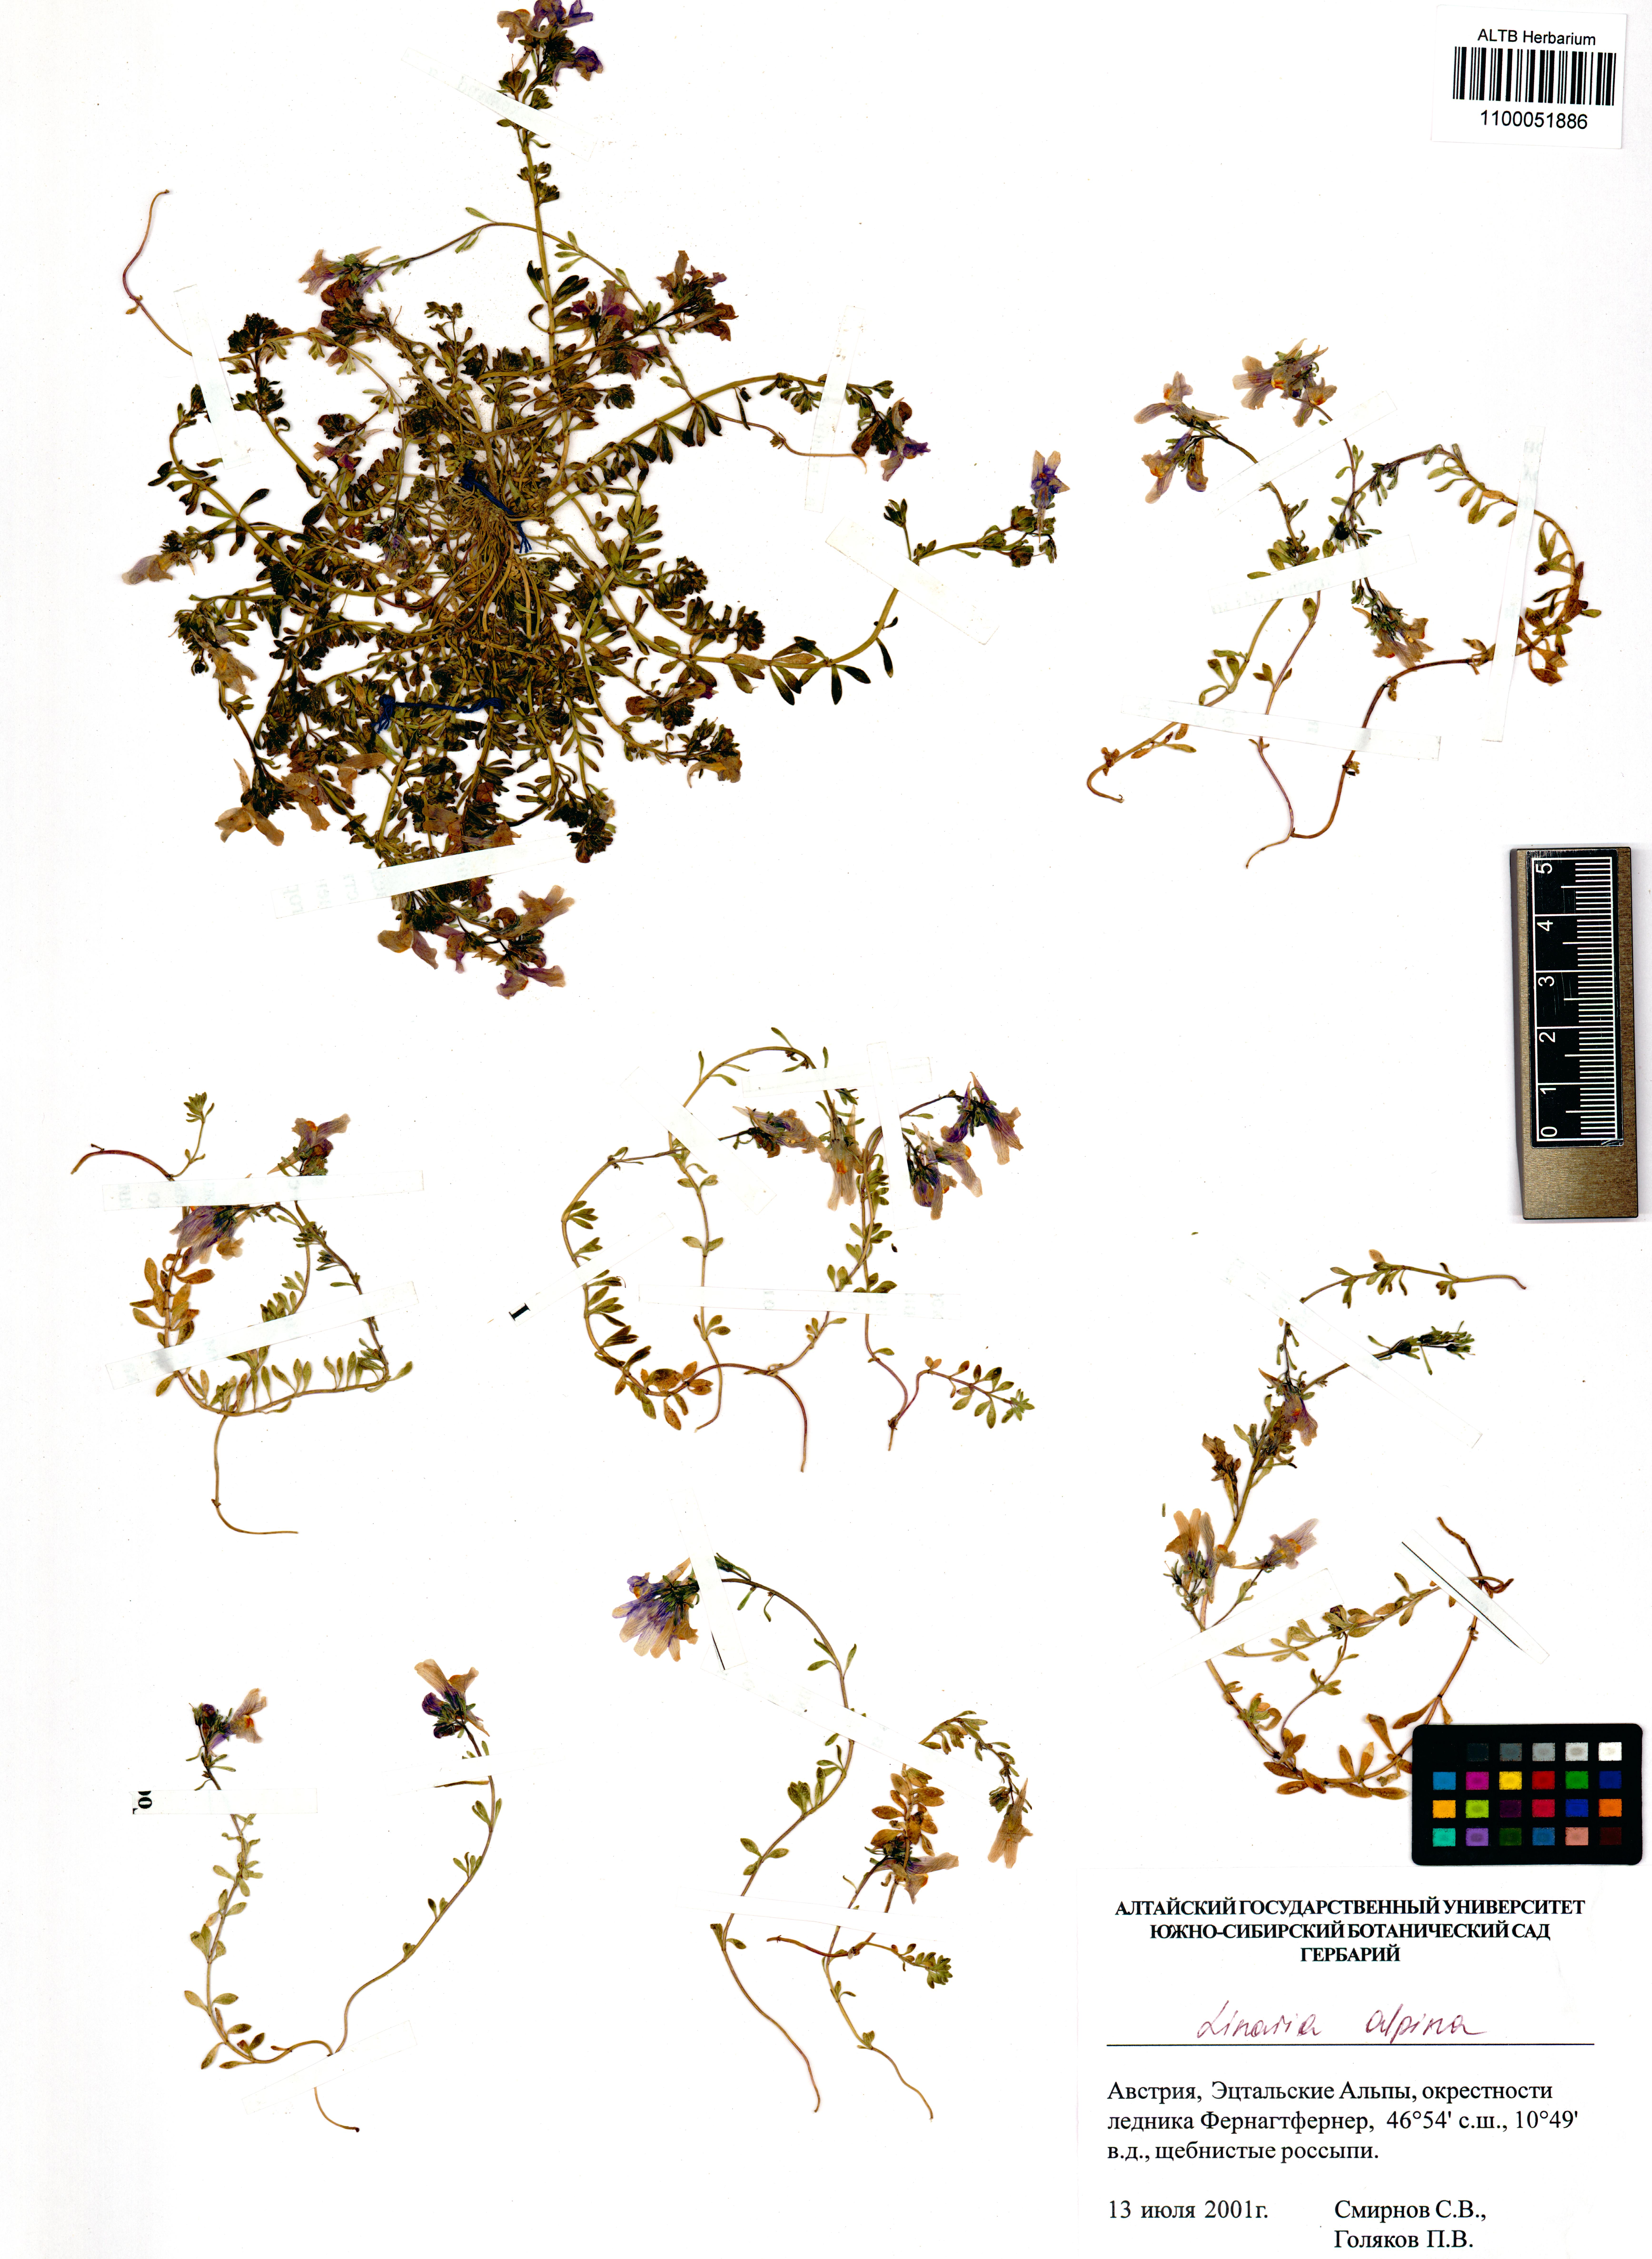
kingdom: Plantae
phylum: Tracheophyta
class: Magnoliopsida
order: Lamiales
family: Plantaginaceae
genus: Linaria
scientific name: Linaria alpina
